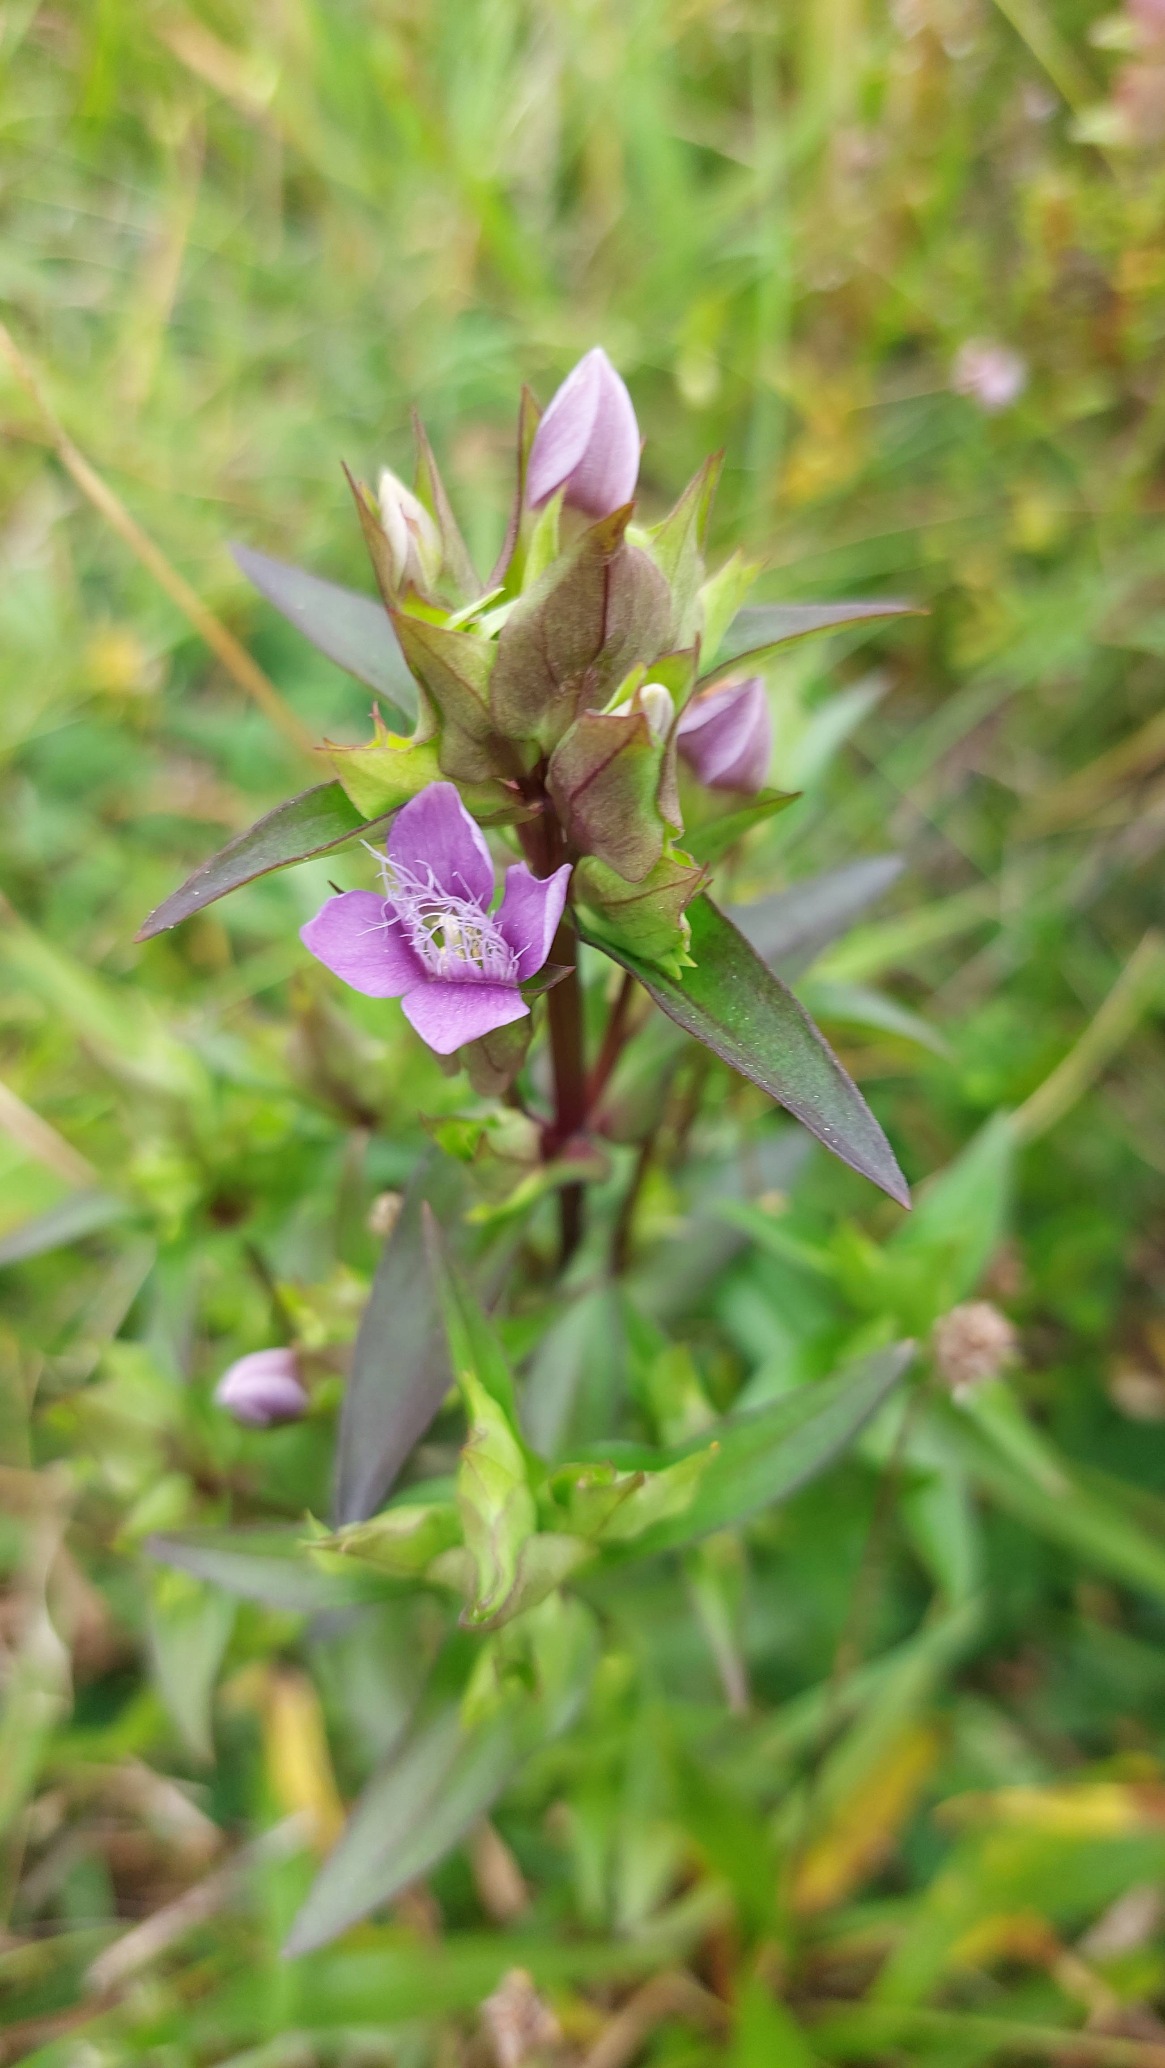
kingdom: Plantae
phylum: Tracheophyta
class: Magnoliopsida
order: Gentianales
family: Gentianaceae
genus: Gentianella
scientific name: Gentianella campestris
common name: Bredbægret ensian
